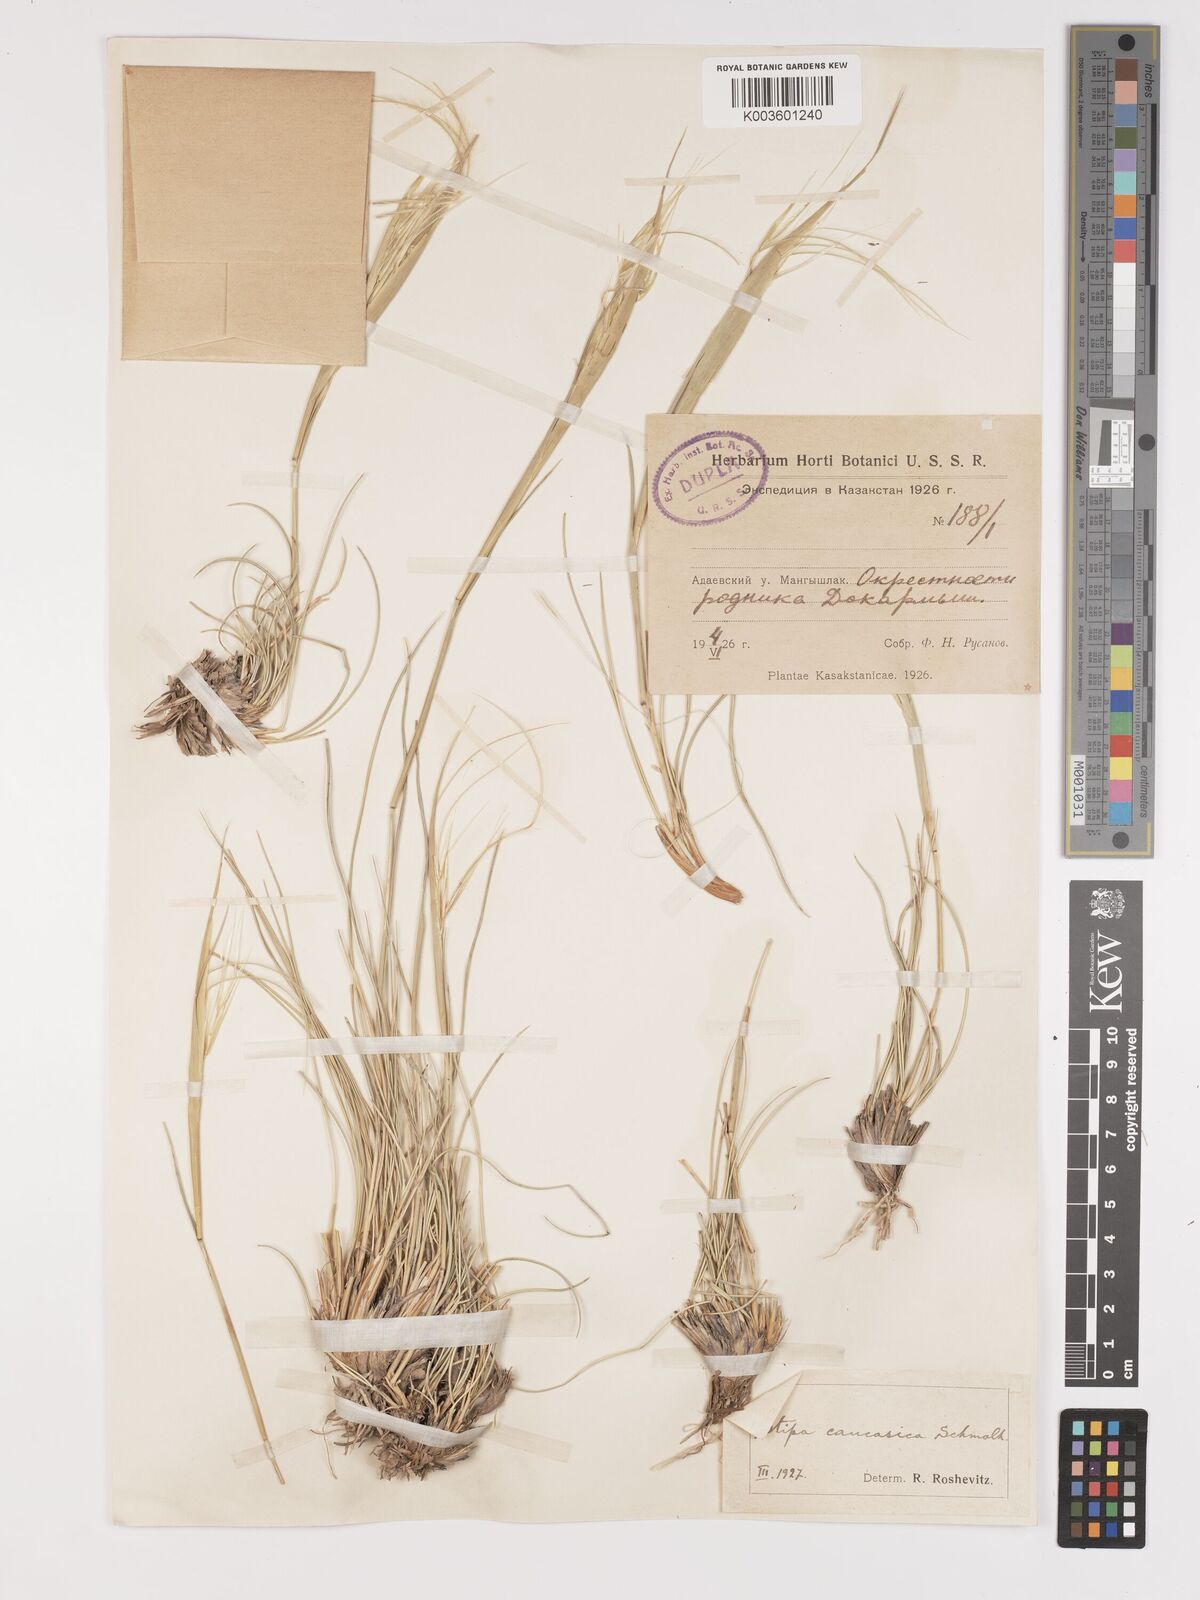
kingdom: Plantae
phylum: Tracheophyta
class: Liliopsida
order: Poales
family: Poaceae
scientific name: Poaceae
